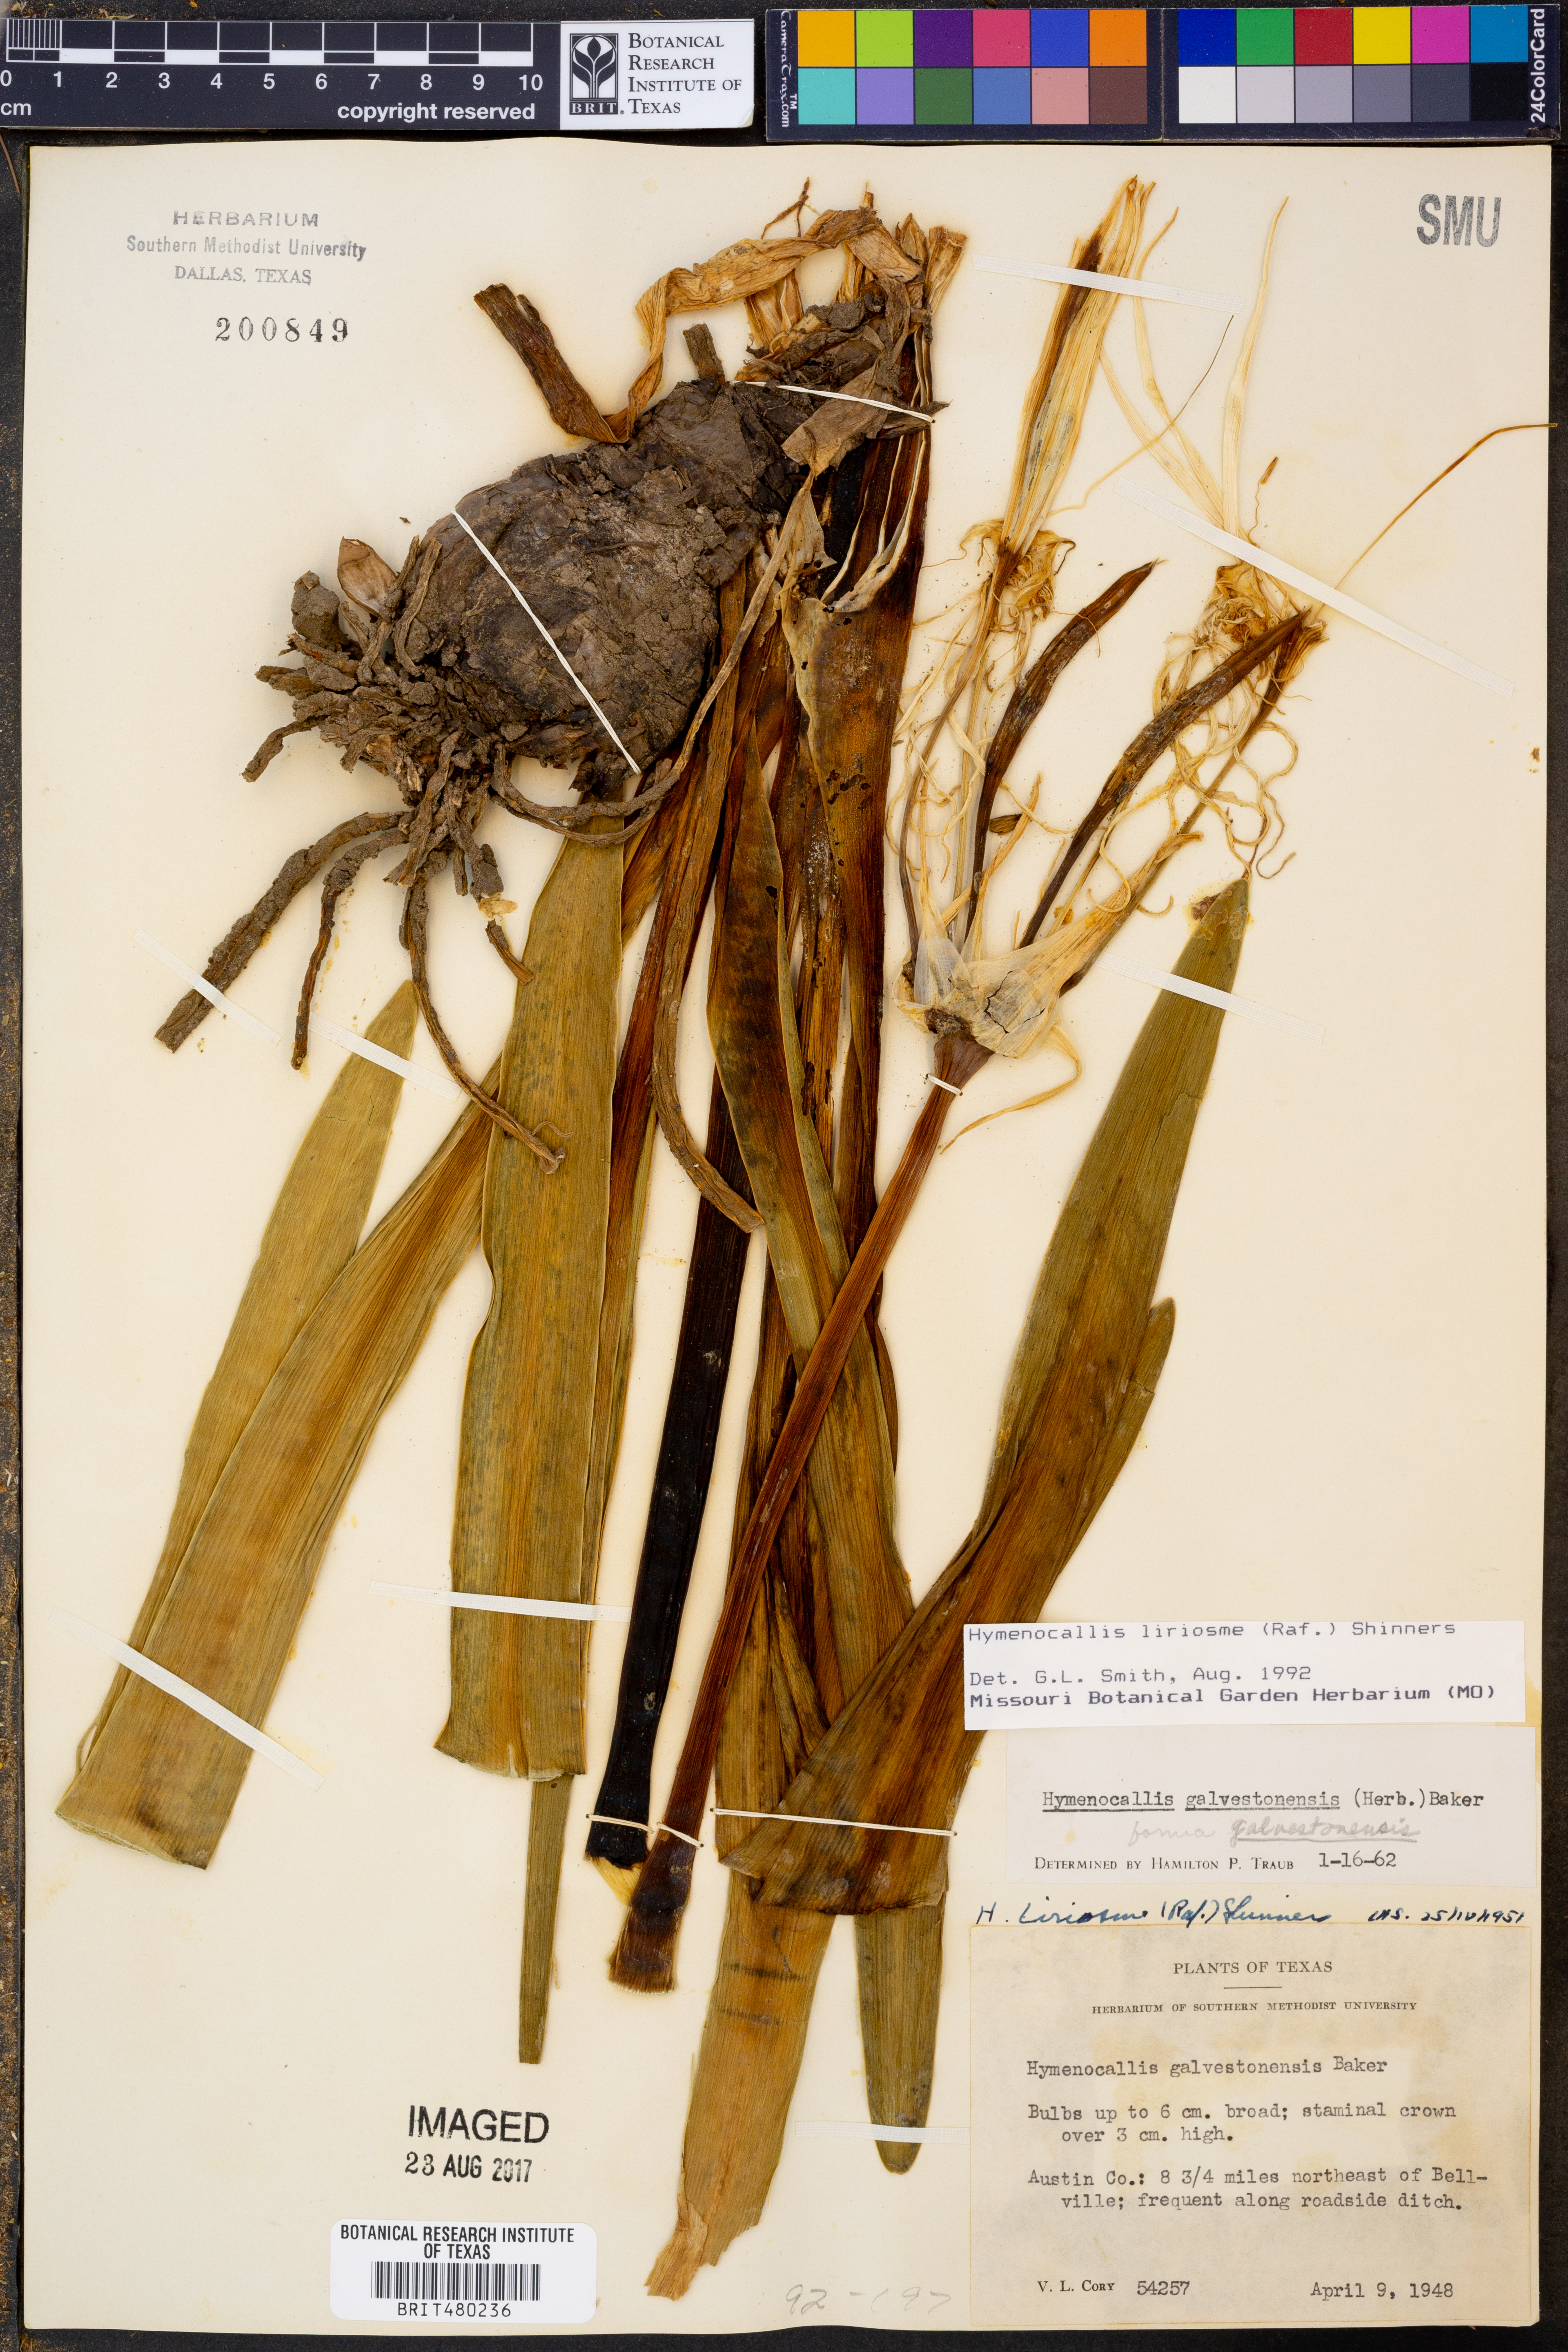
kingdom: Plantae
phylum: Tracheophyta
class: Liliopsida
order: Asparagales
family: Amaryllidaceae
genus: Hymenocallis
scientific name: Hymenocallis liriosme
